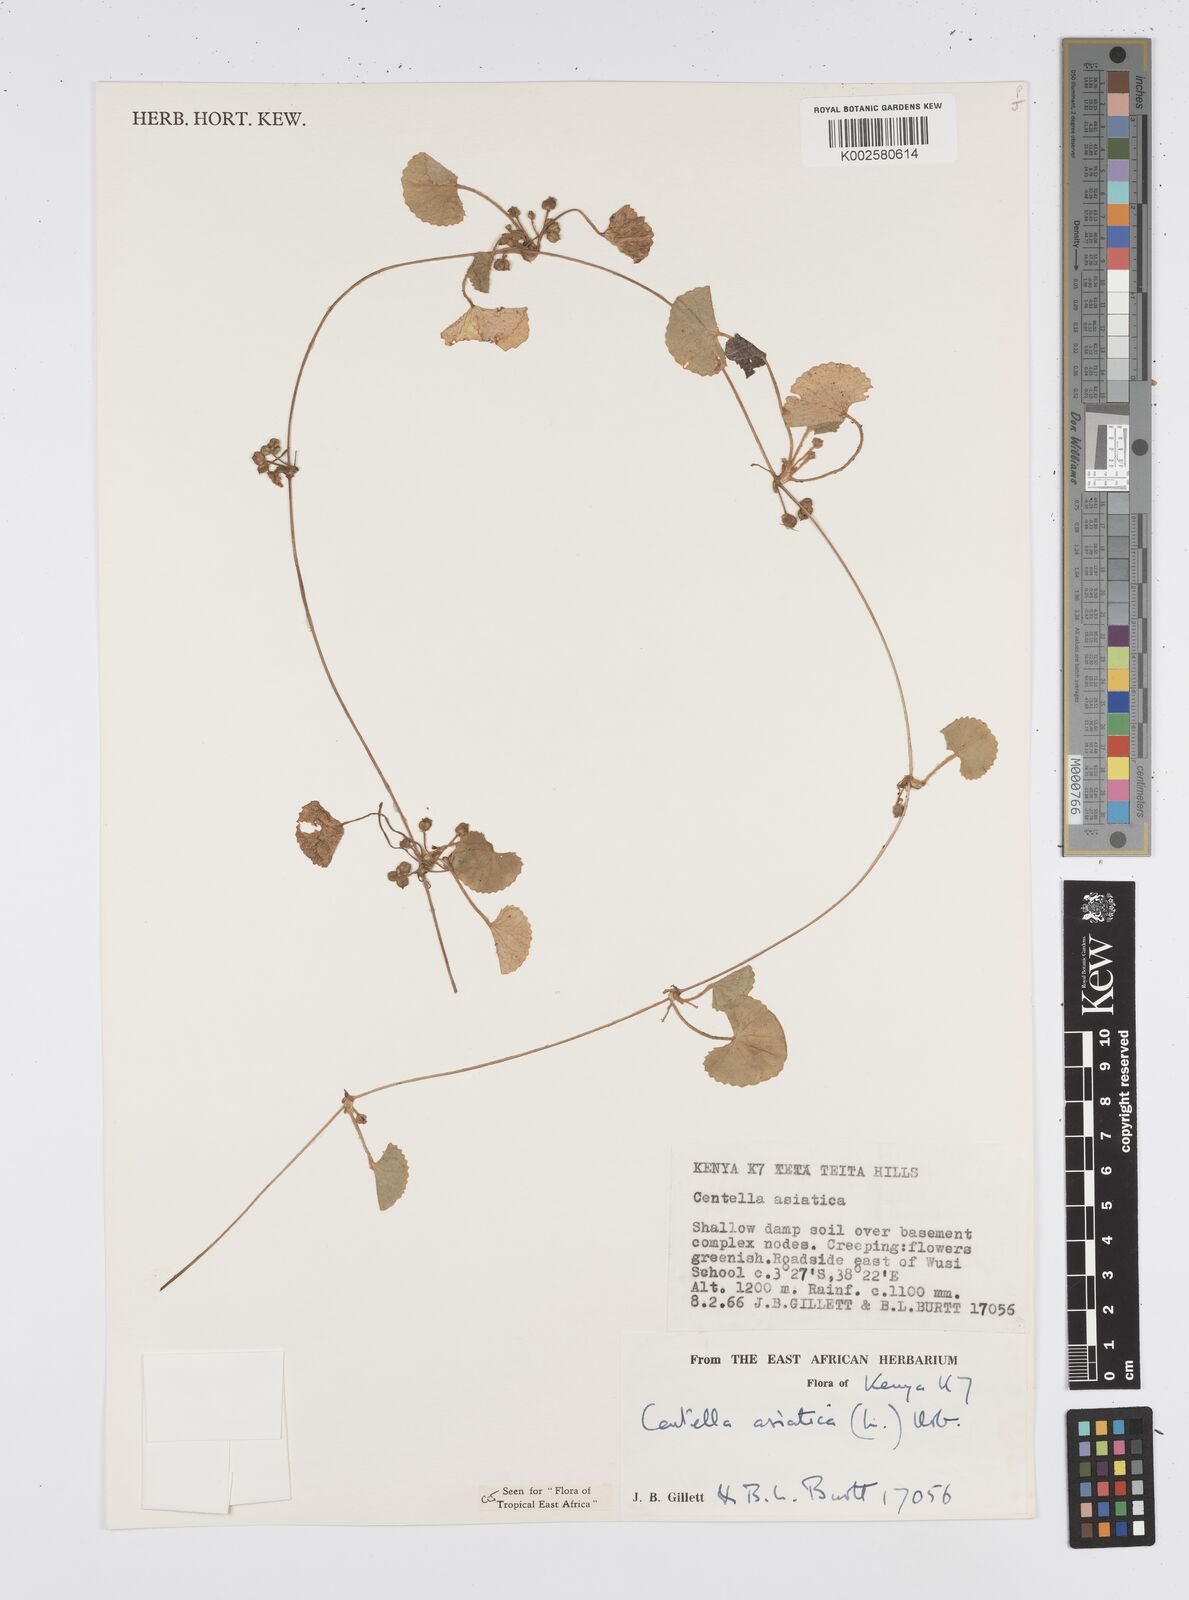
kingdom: Plantae
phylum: Tracheophyta
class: Magnoliopsida
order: Apiales
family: Apiaceae
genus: Centella
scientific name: Centella asiatica
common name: Spadeleaf
